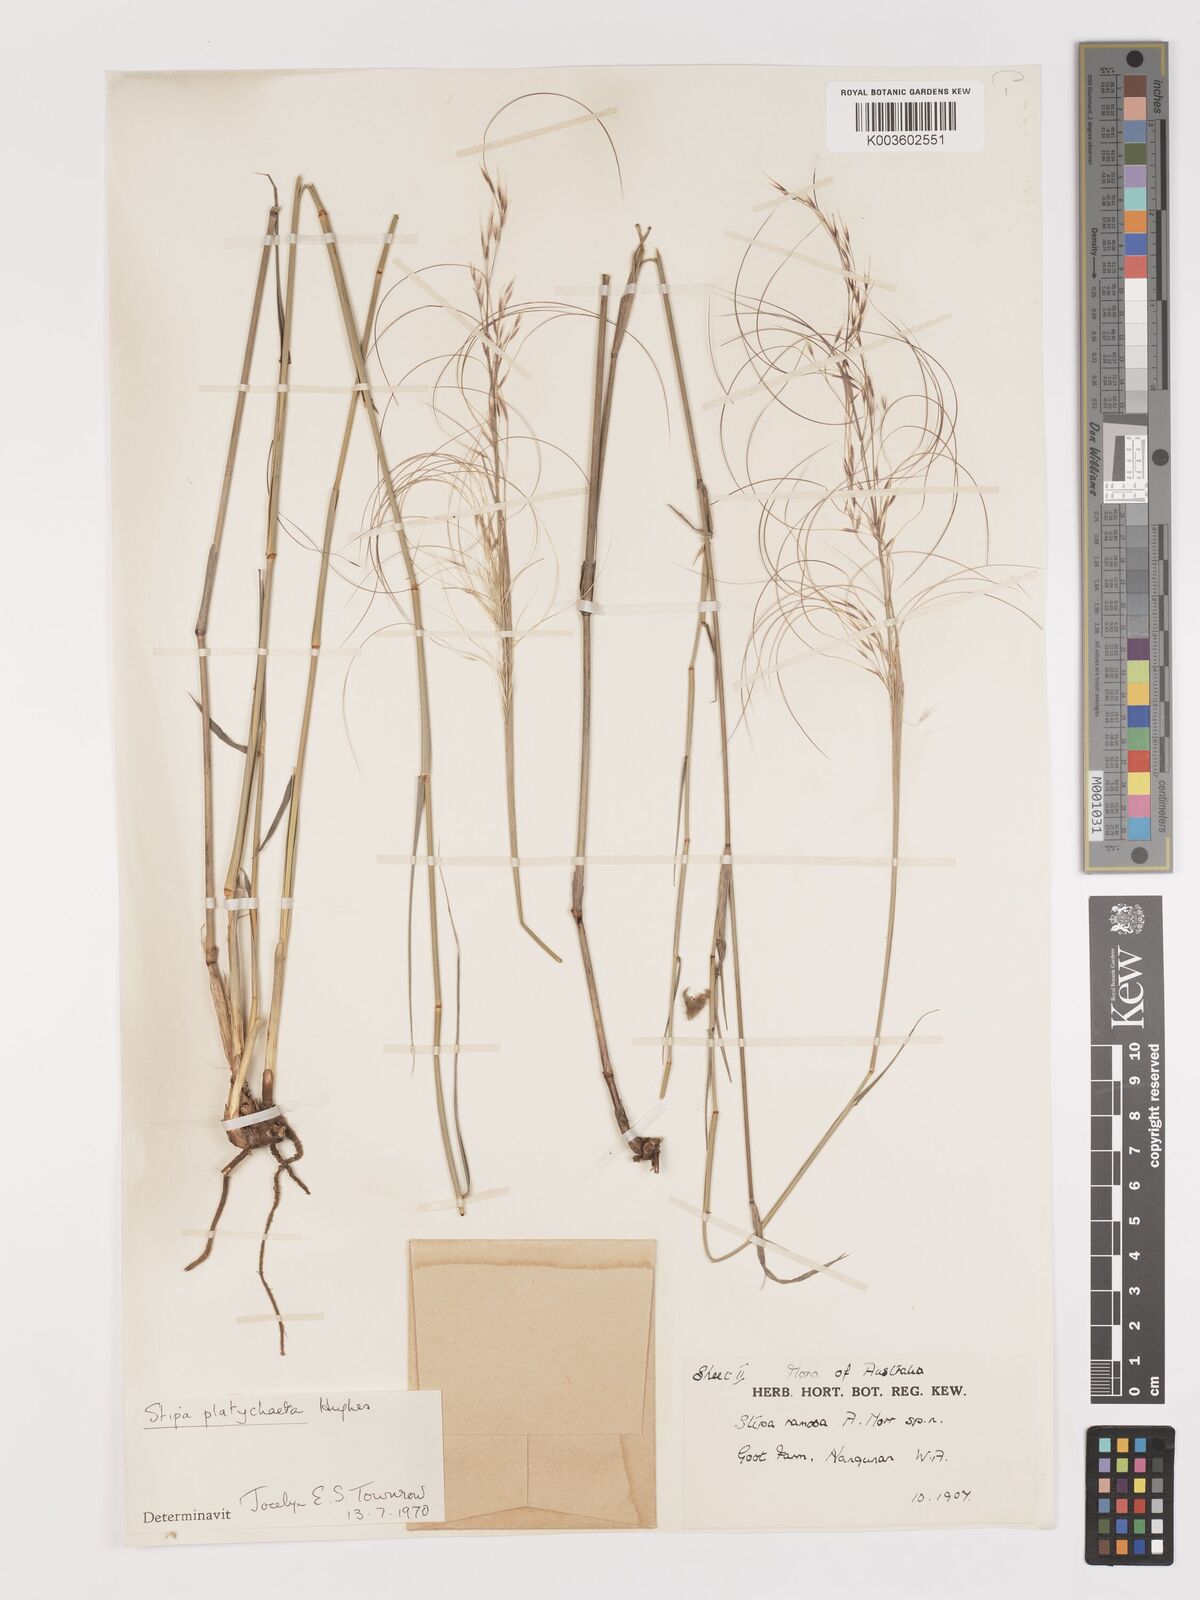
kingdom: Plantae
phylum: Tracheophyta
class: Liliopsida
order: Poales
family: Poaceae
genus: Austrostipa
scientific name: Austrostipa platychaeta
